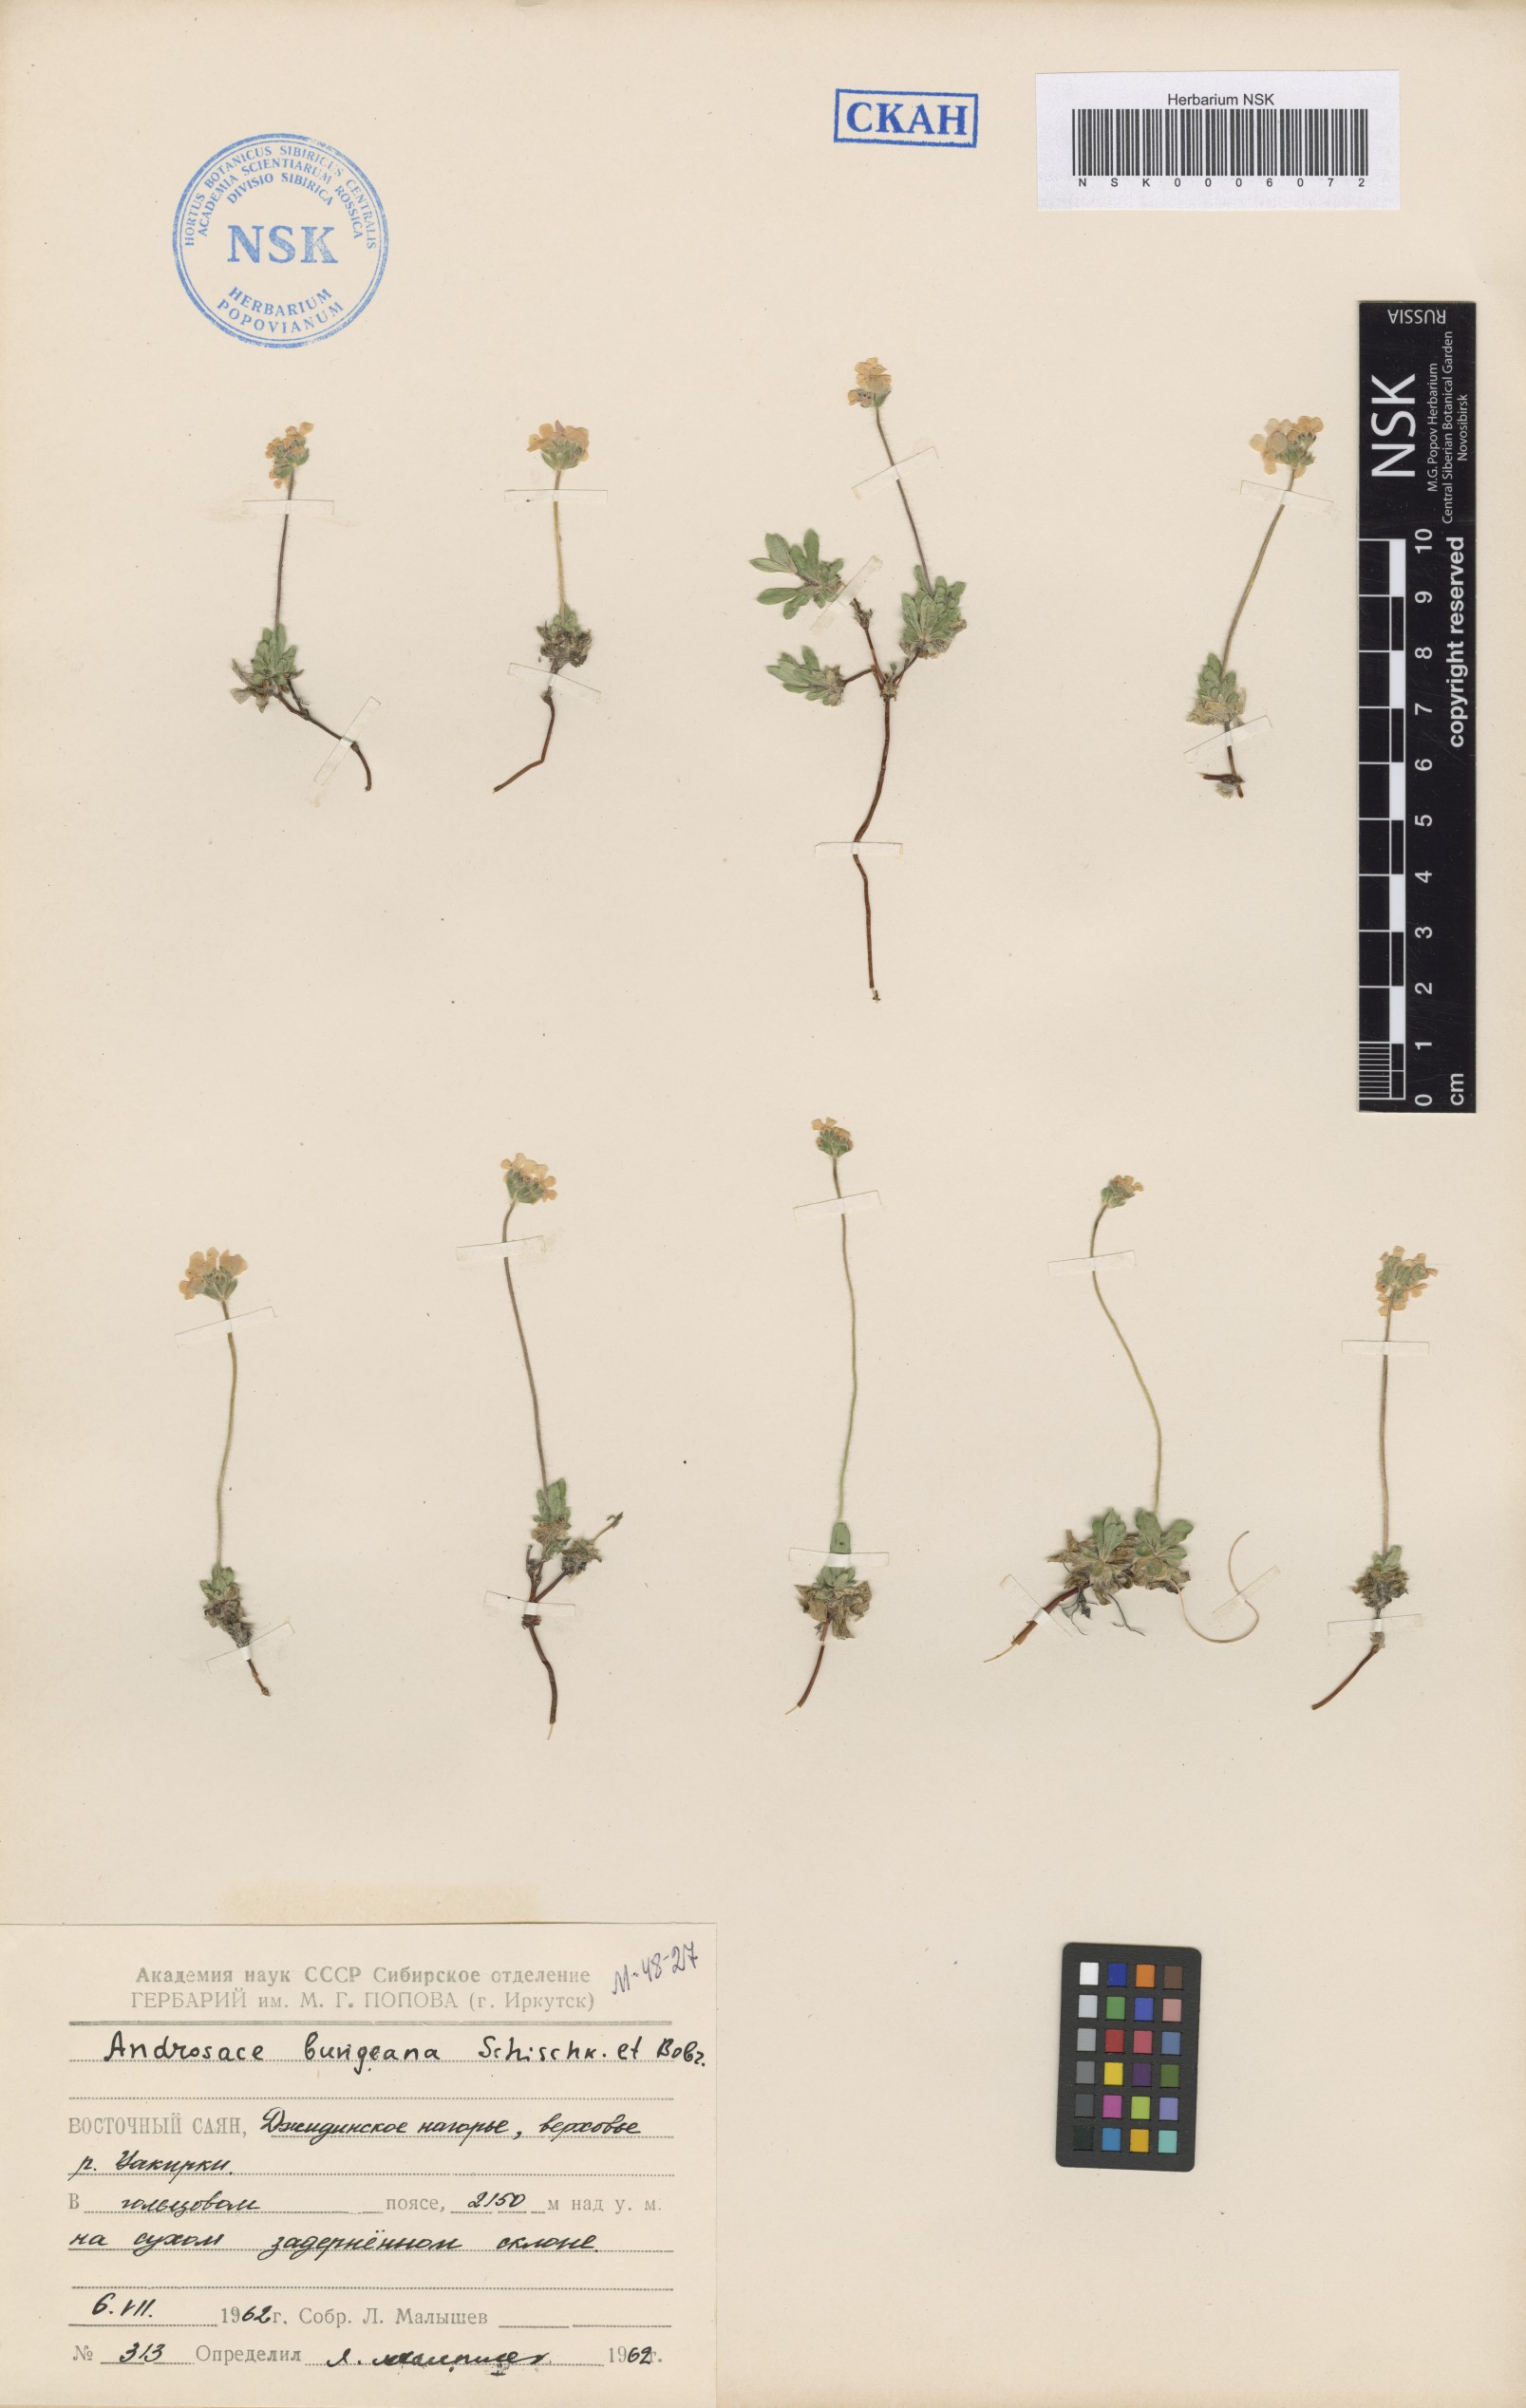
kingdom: Plantae
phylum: Tracheophyta
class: Magnoliopsida
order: Ericales
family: Primulaceae
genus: Androsace
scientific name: Androsace bungeana
